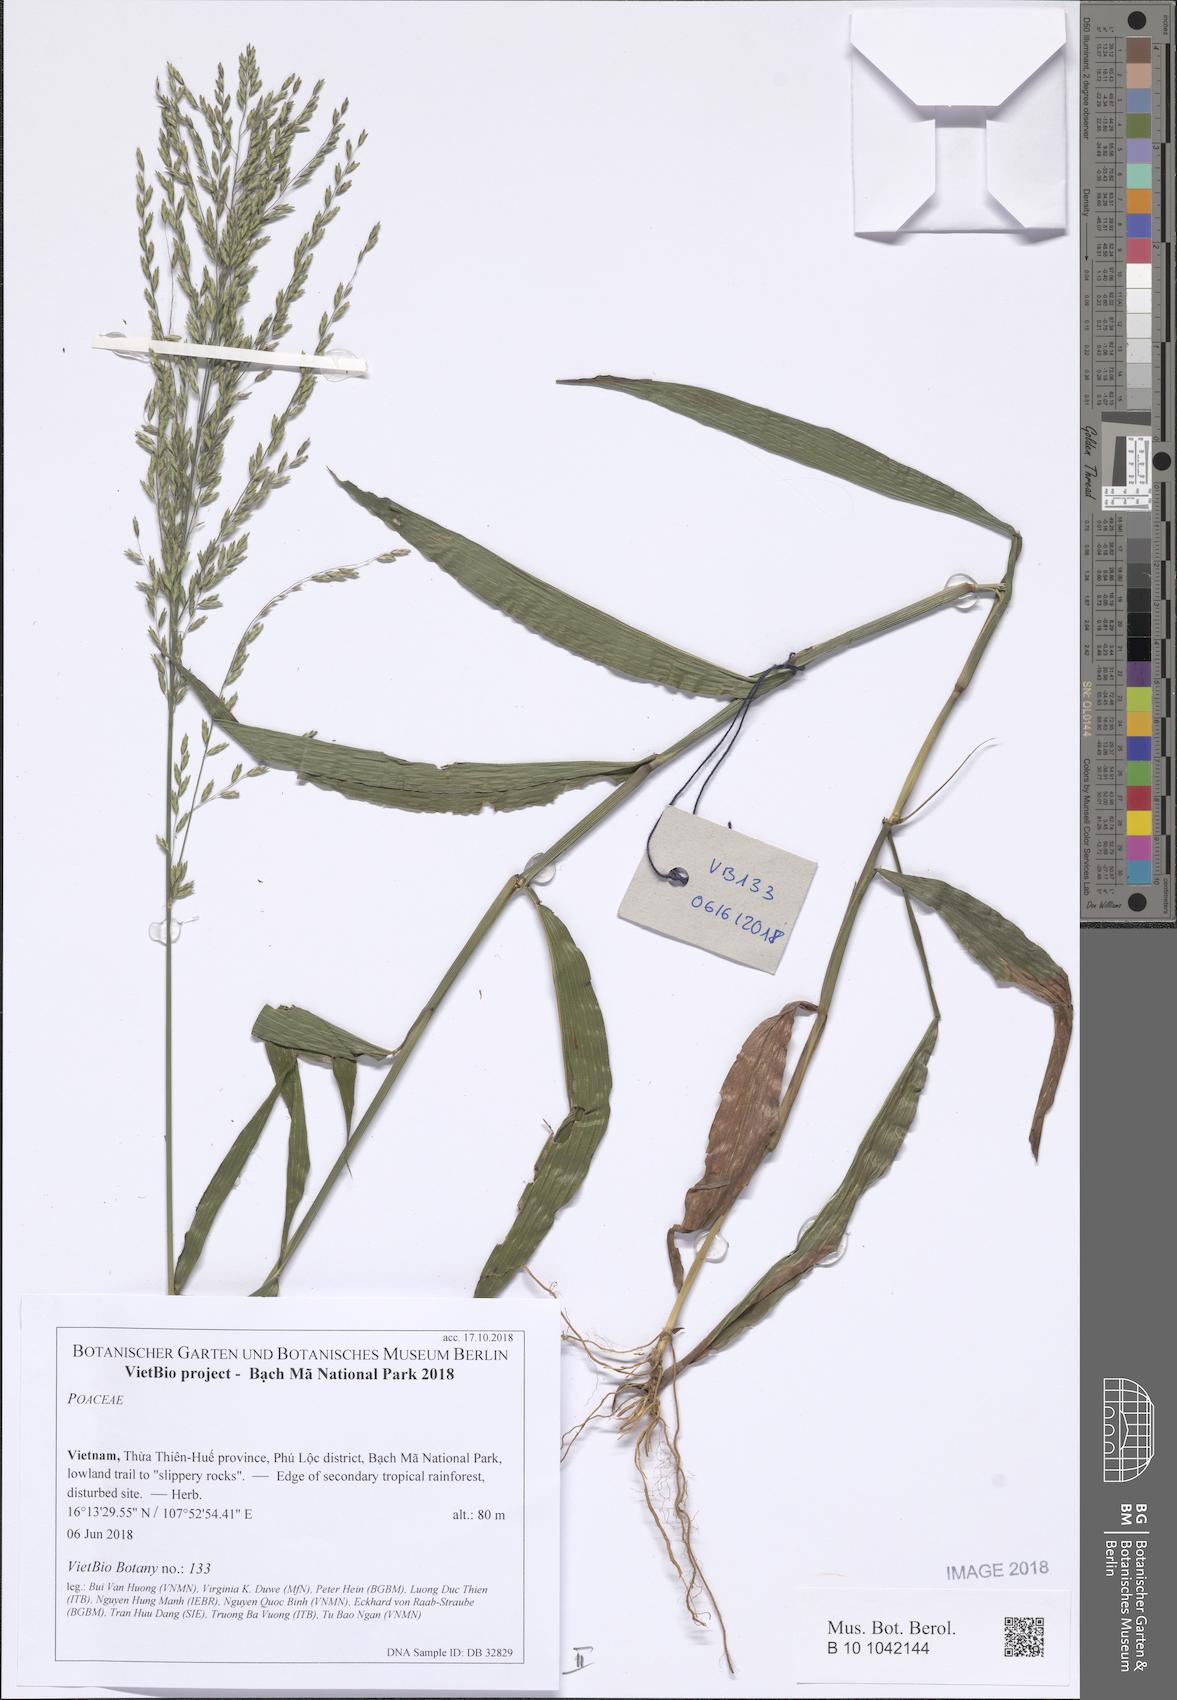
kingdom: Plantae
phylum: Tracheophyta
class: Liliopsida
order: Poales
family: Poaceae
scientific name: Poaceae
